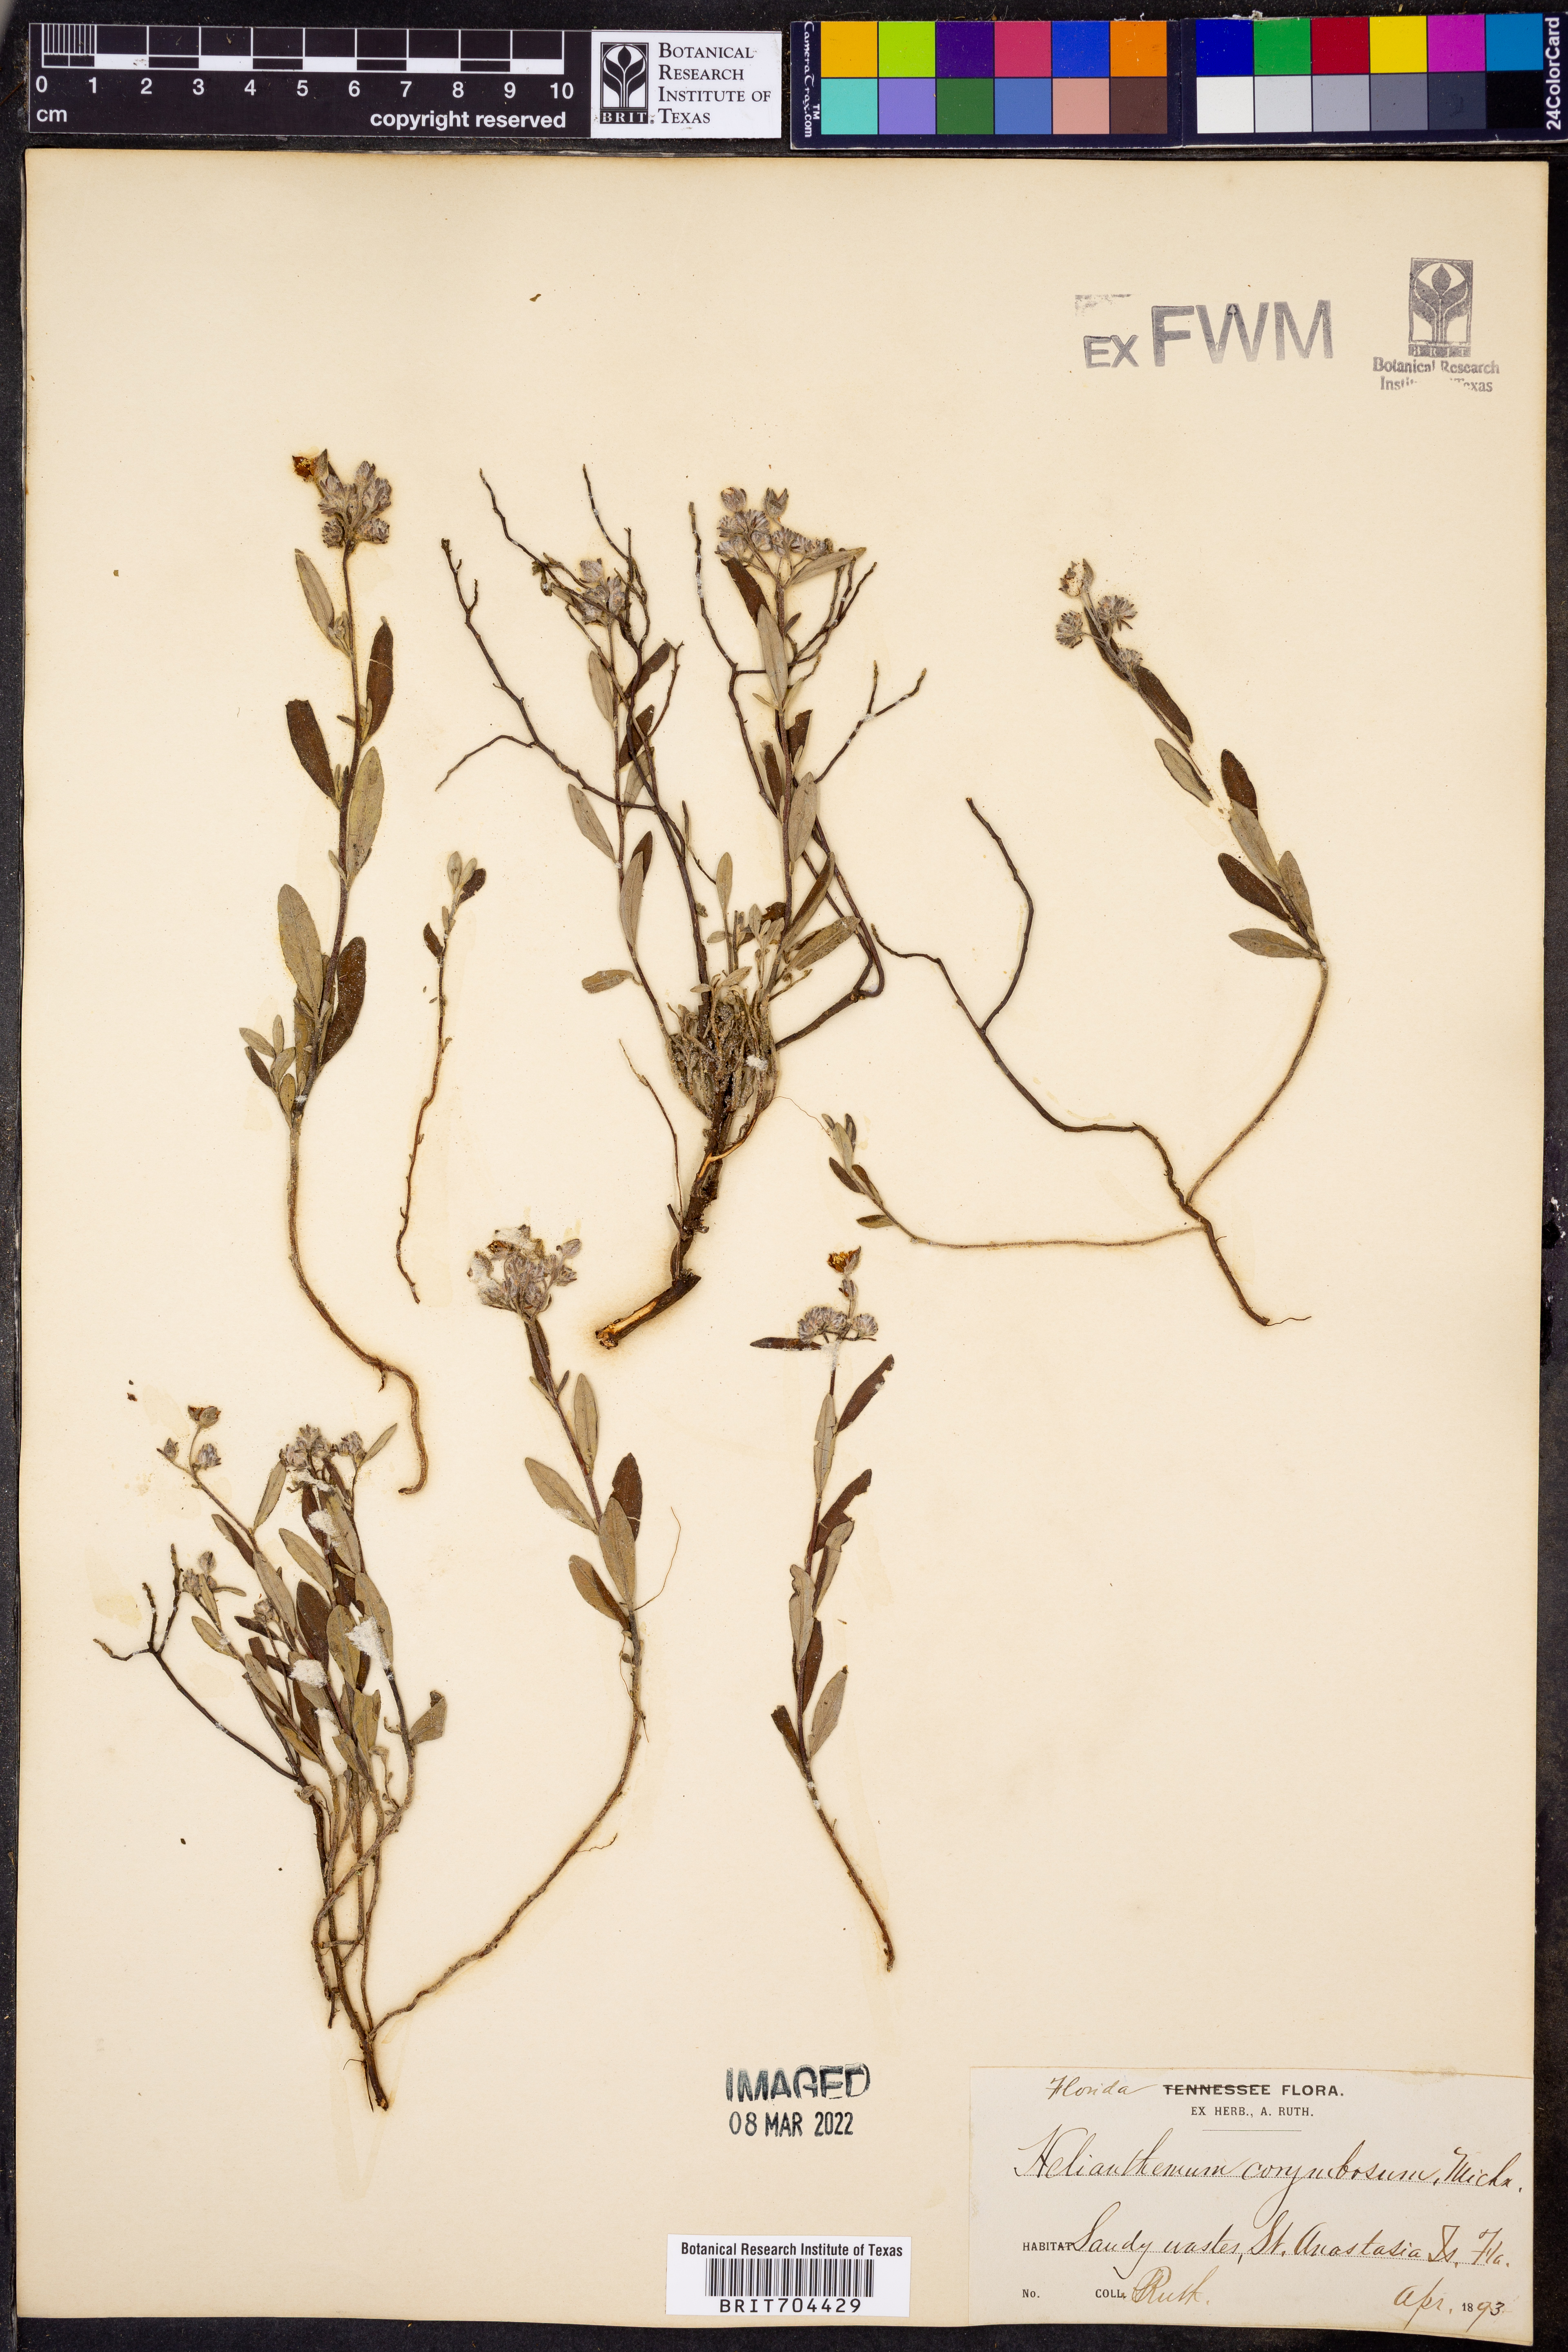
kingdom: Plantae
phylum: Tracheophyta
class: Magnoliopsida
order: Malvales
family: Cistaceae
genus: Crocanthemum
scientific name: Crocanthemum corymbosum
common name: Pinebarren sun-rose
